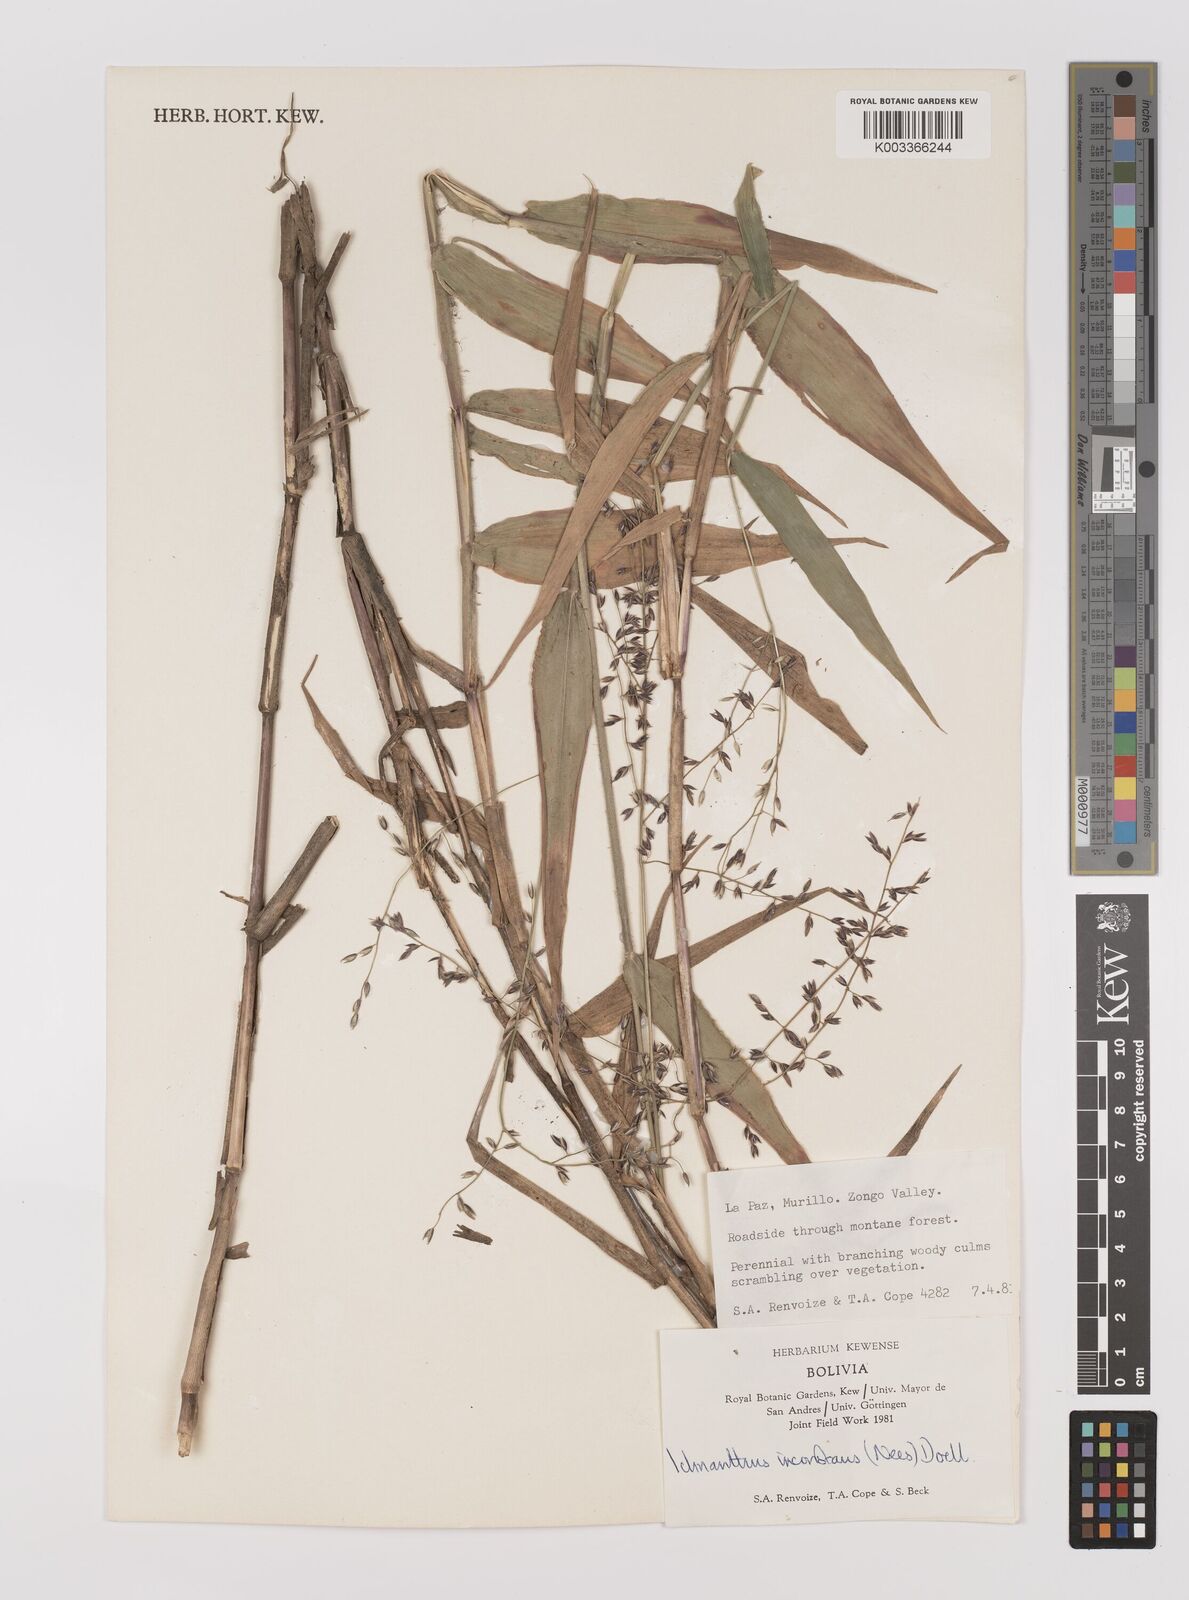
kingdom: Plantae
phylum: Tracheophyta
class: Liliopsida
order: Poales
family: Poaceae
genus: Ichnanthus
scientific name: Ichnanthus inconstans
